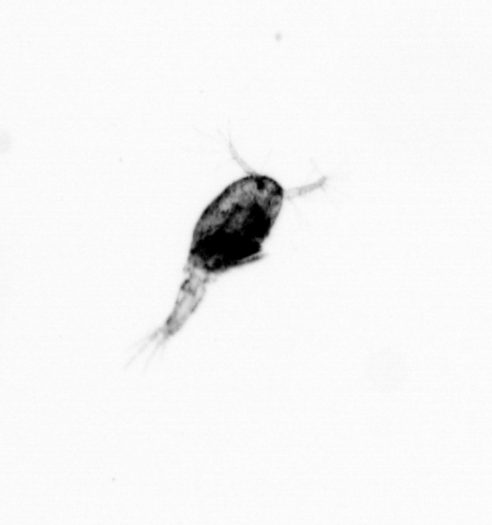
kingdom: Animalia
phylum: Arthropoda
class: Copepoda
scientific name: Copepoda
